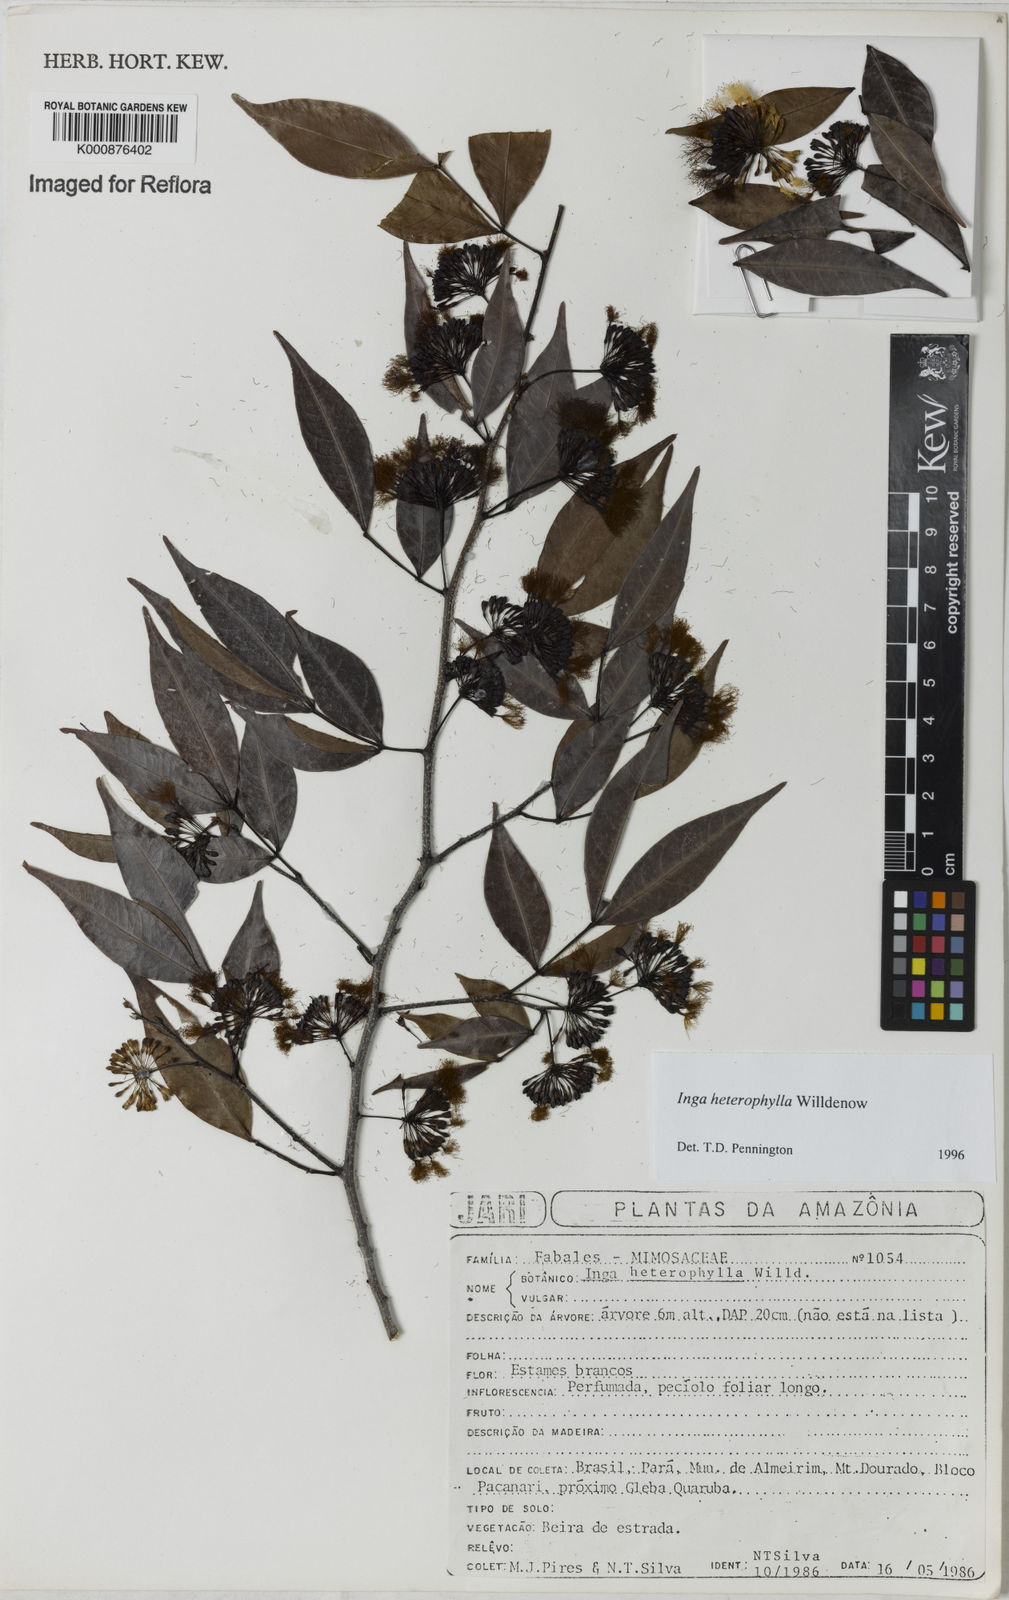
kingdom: Plantae
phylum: Tracheophyta
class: Magnoliopsida
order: Fabales
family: Fabaceae
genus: Inga
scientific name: Inga heterophylla
